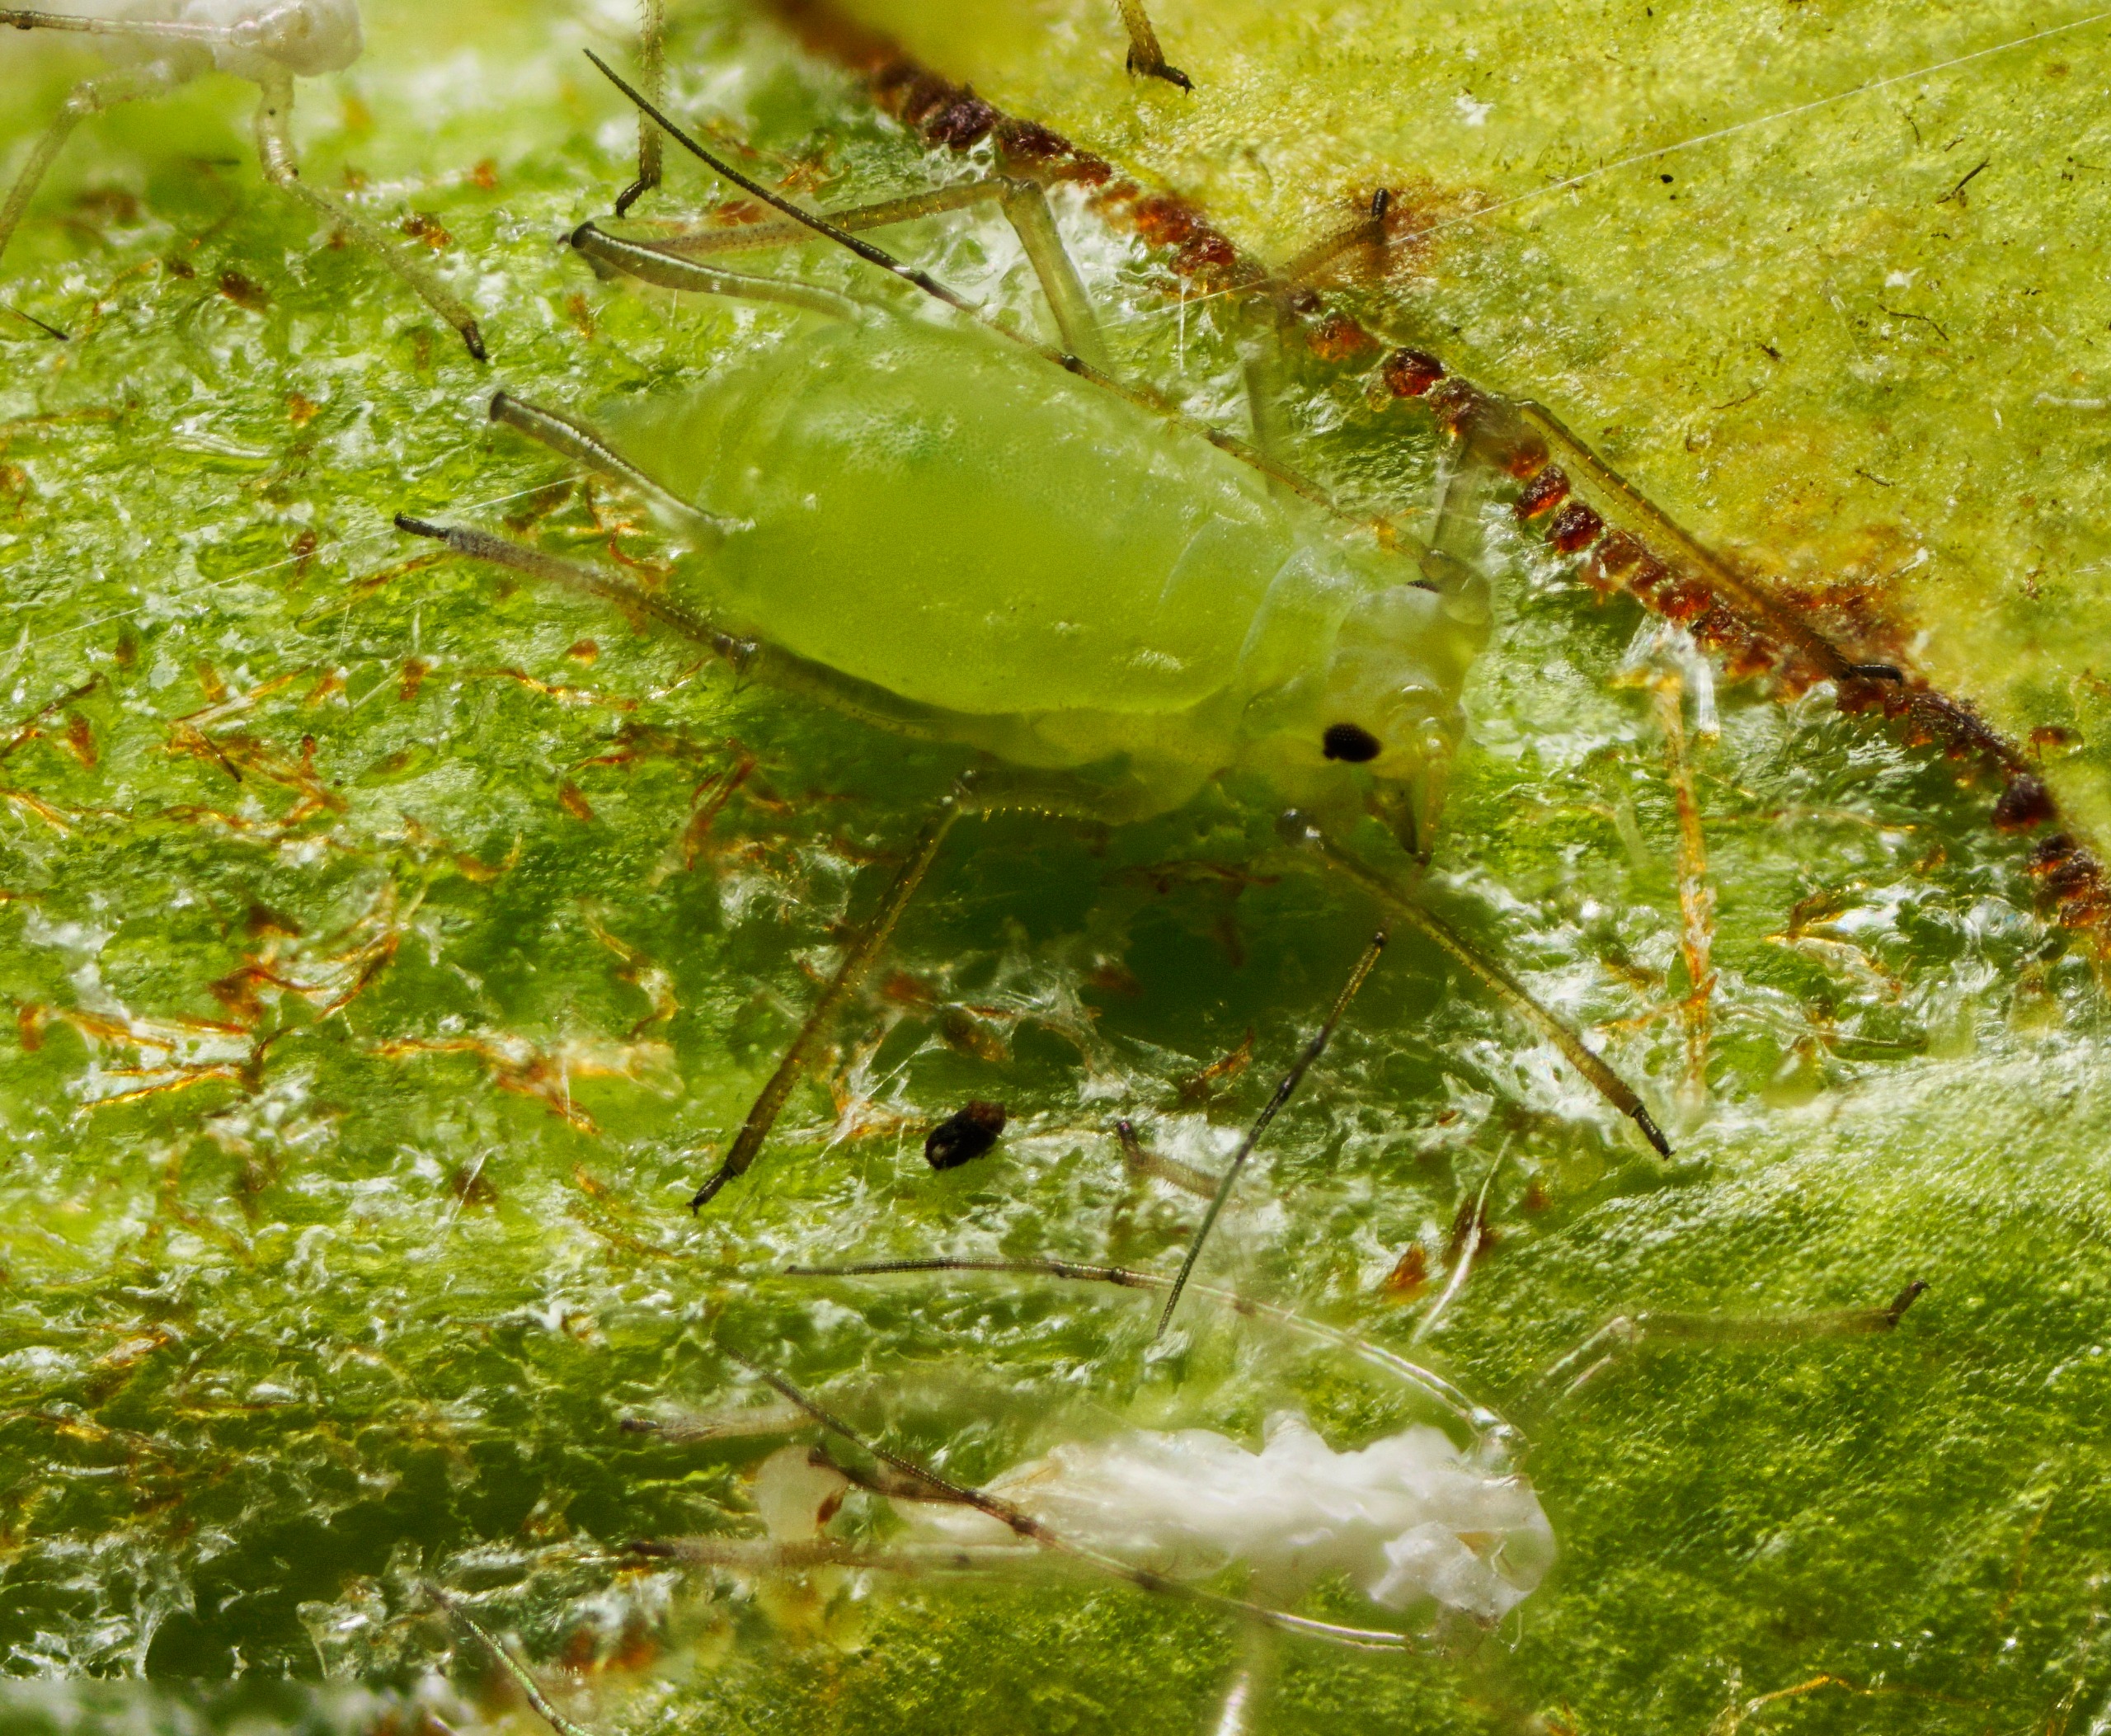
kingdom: Animalia
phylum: Arthropoda
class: Insecta
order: Hemiptera
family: Aphididae
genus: Illinoia
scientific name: Illinoia lambersi
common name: Rododendronbladlus
